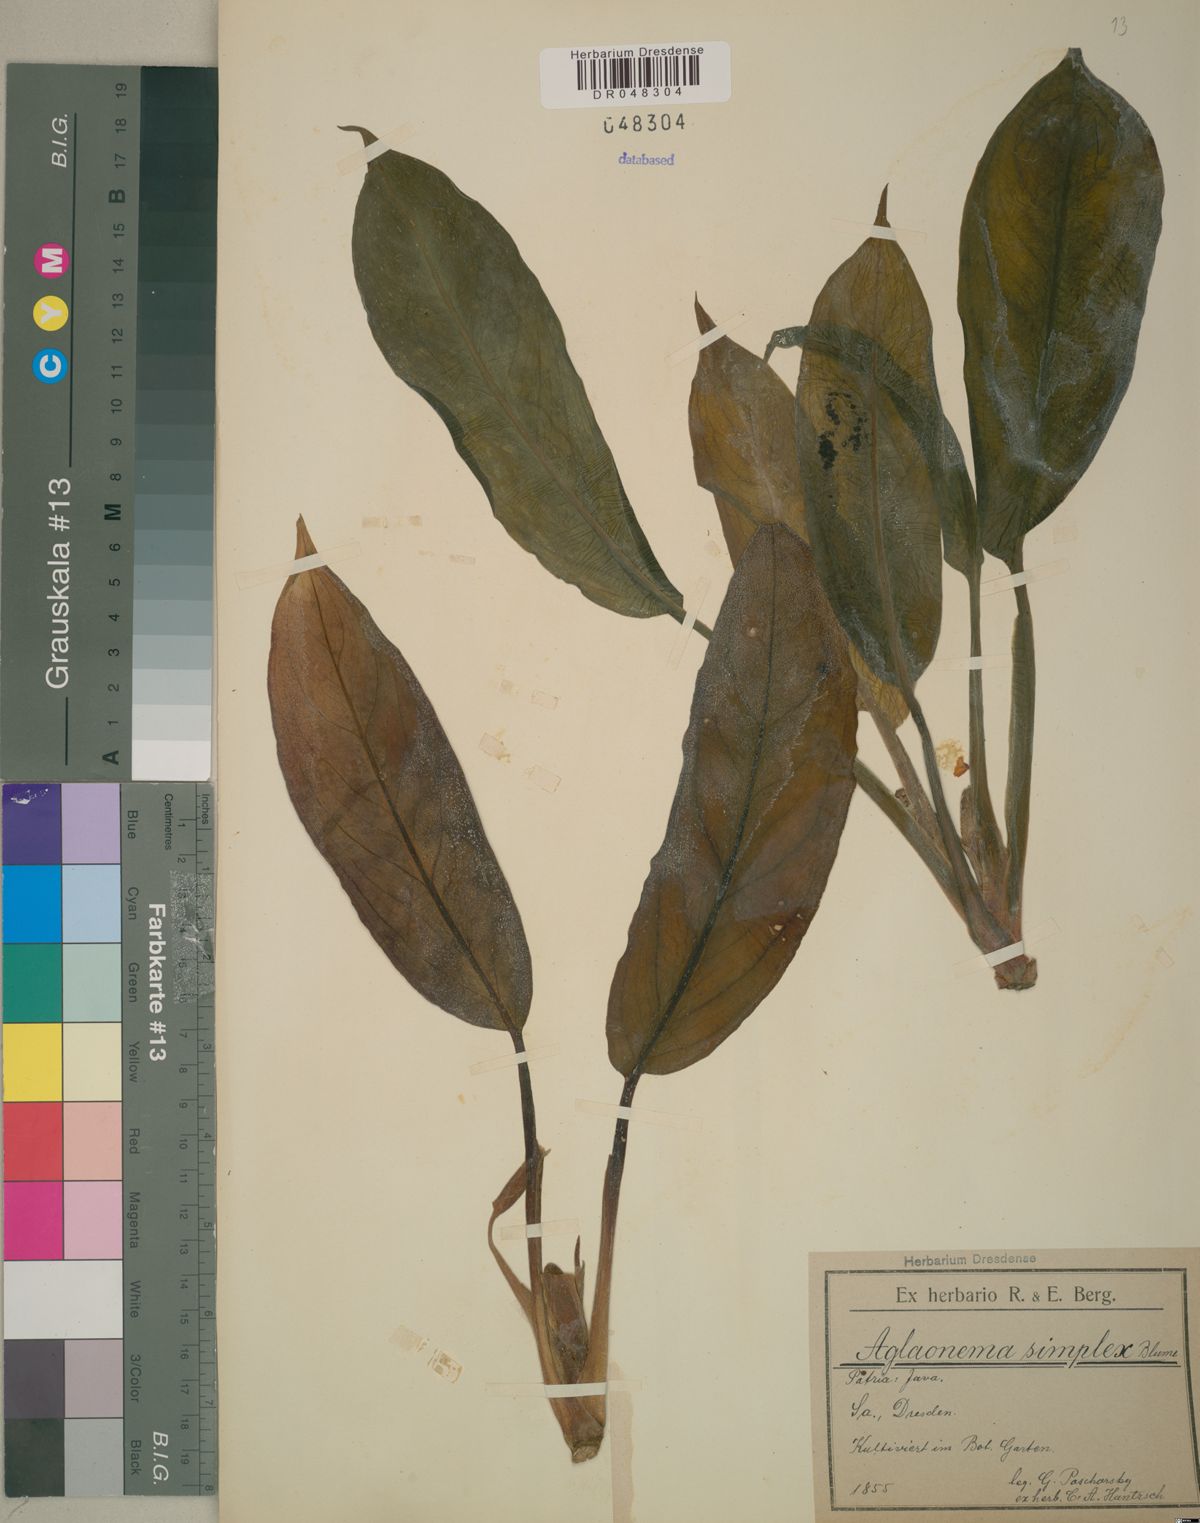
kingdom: Plantae
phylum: Tracheophyta
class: Liliopsida
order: Alismatales
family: Araceae
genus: Aglaonema
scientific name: Aglaonema simplex
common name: Malayan-sword
